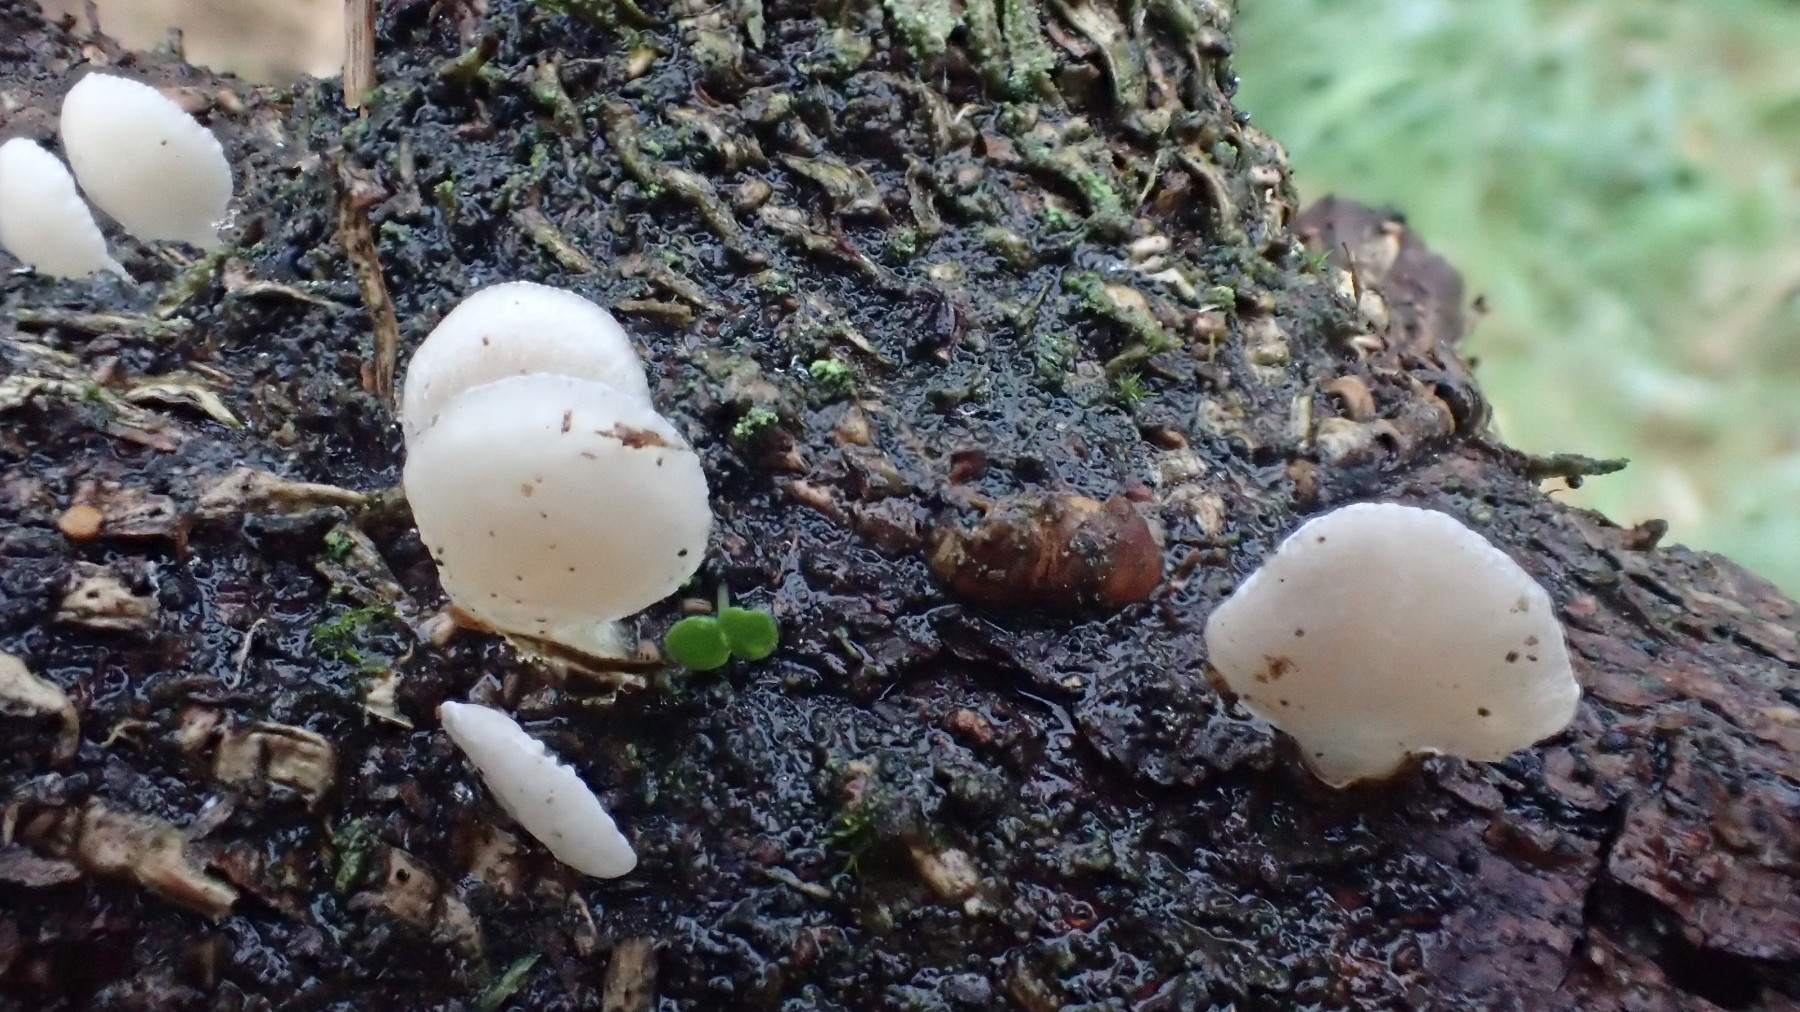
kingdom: Fungi
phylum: Basidiomycota
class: Agaricomycetes
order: Agaricales
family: Mycenaceae
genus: Panellus
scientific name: Panellus mitis
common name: mild epaulethat
